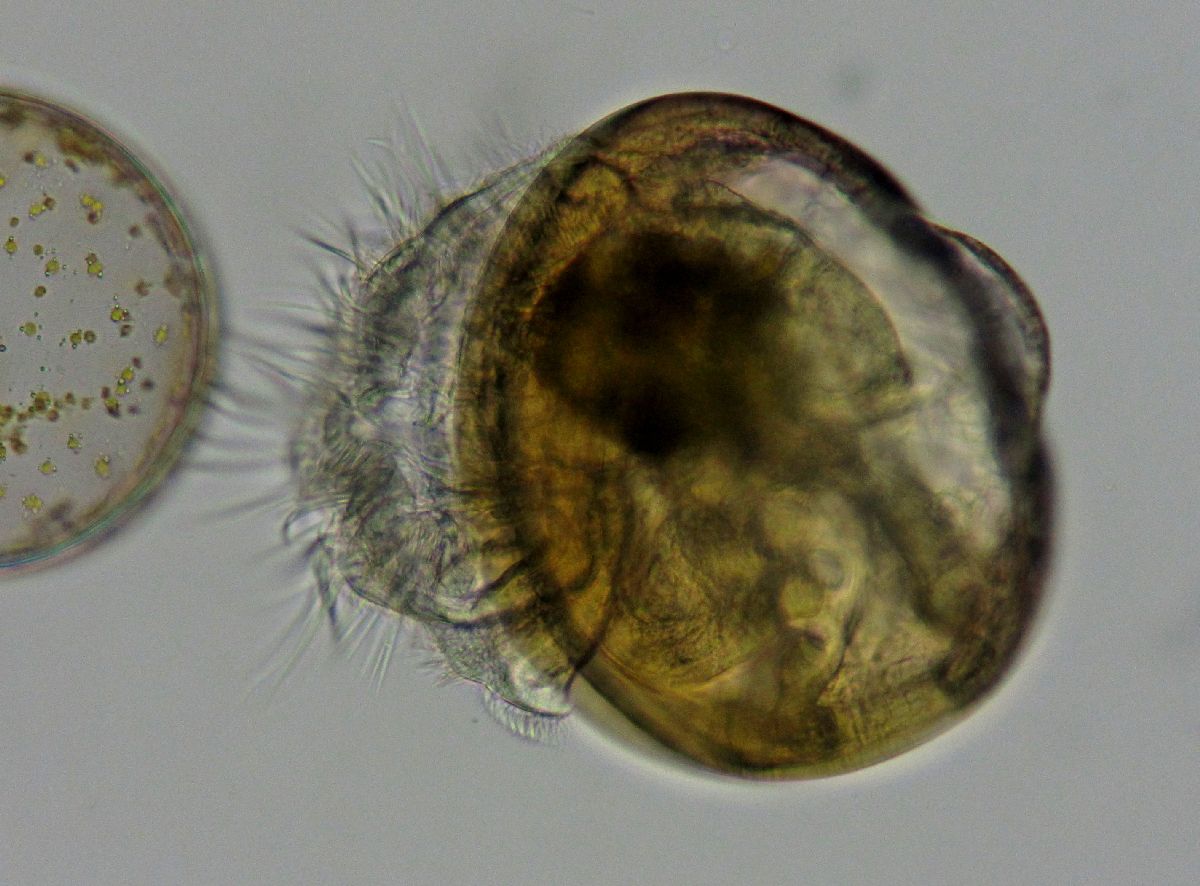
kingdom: Animalia
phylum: Mollusca
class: Bivalvia
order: Mytilida
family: Mytilidae
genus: Mytilus
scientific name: Mytilus edulis
